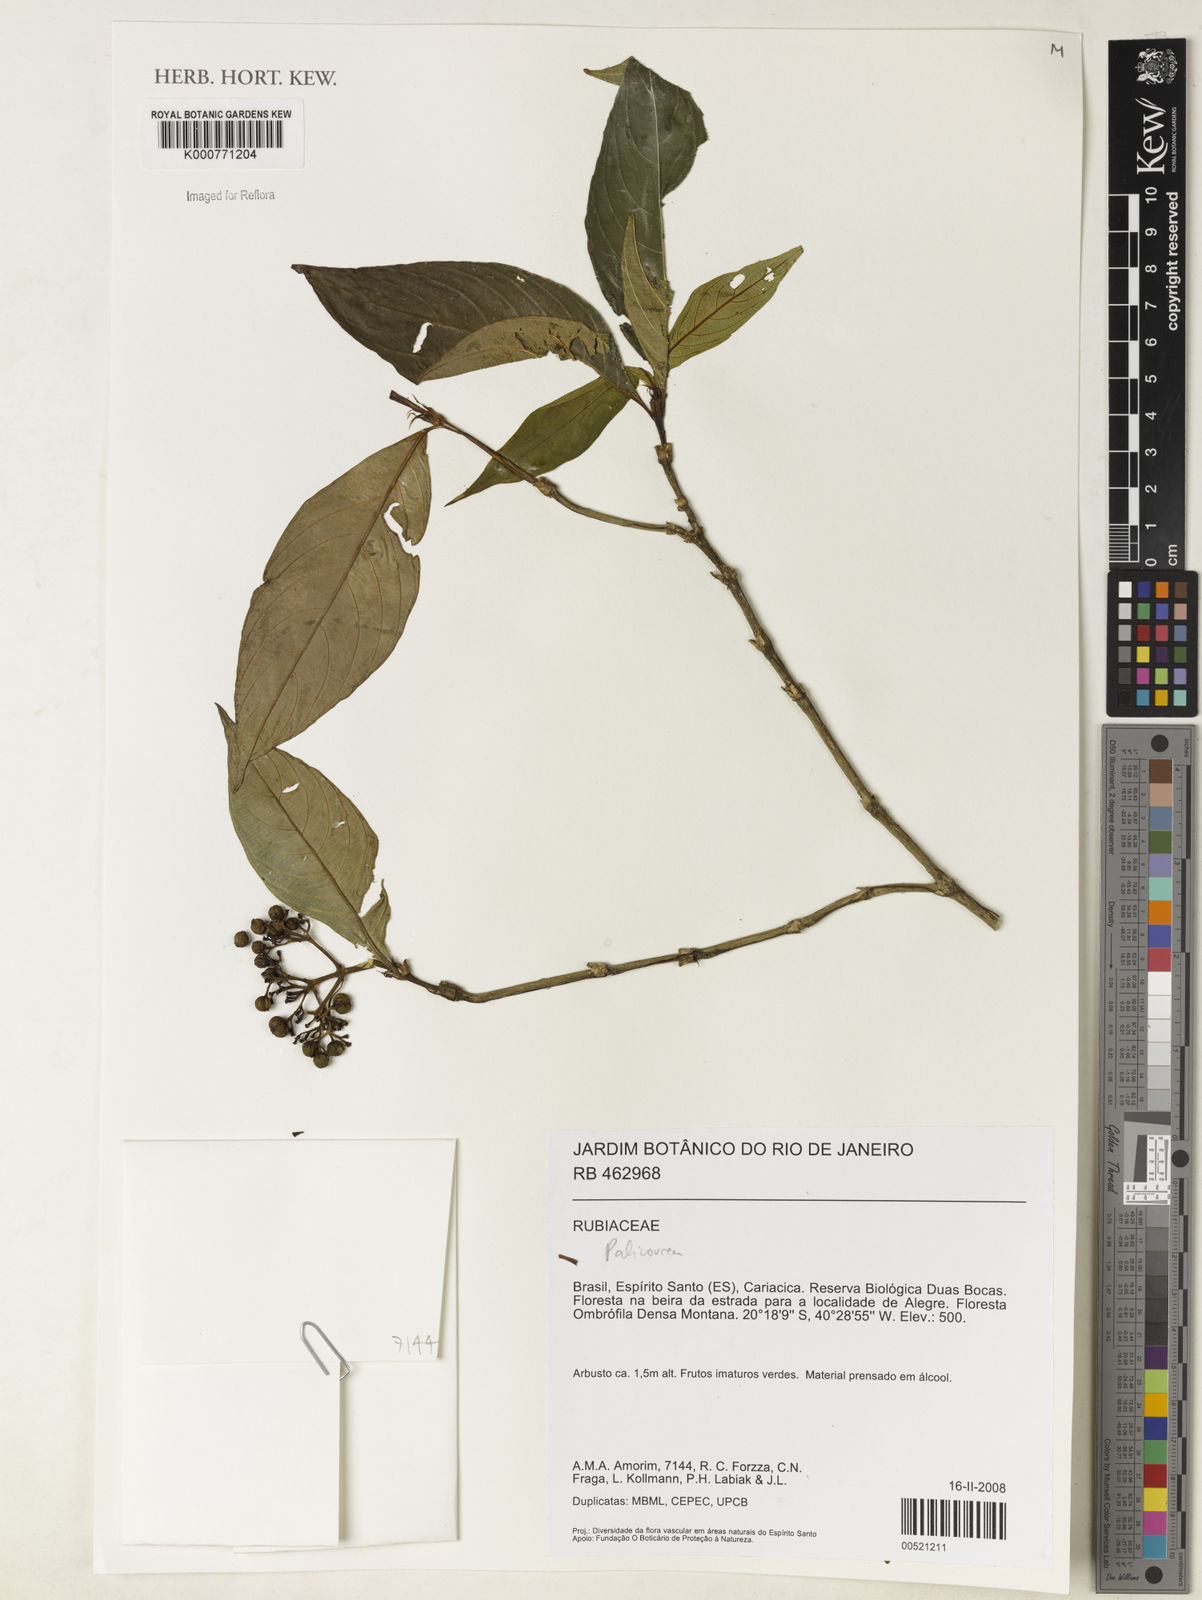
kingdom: Plantae
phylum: Tracheophyta
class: Magnoliopsida
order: Gentianales
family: Rubiaceae
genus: Palicourea
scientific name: Palicourea
